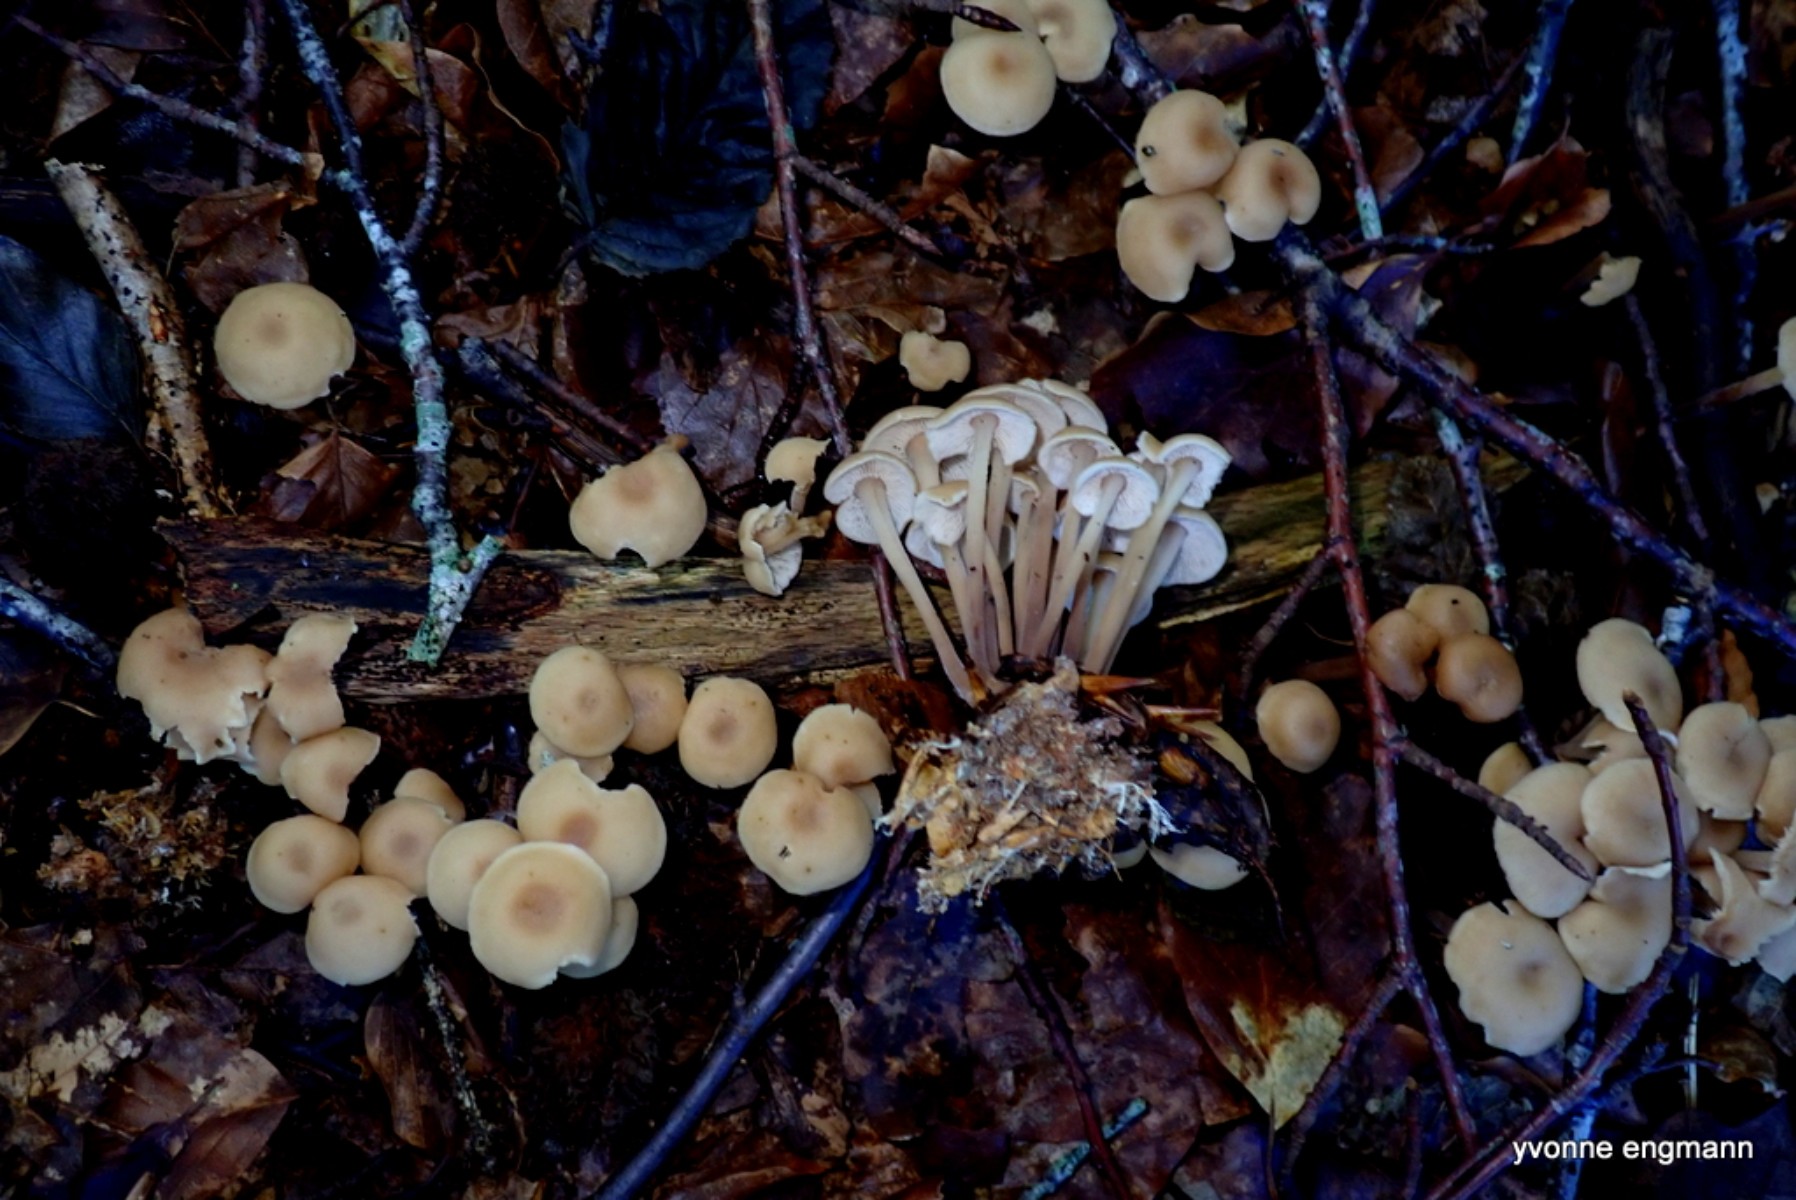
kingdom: Fungi
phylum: Basidiomycota
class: Agaricomycetes
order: Agaricales
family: Omphalotaceae
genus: Collybiopsis
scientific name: Collybiopsis confluens
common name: knippe-fladhat
